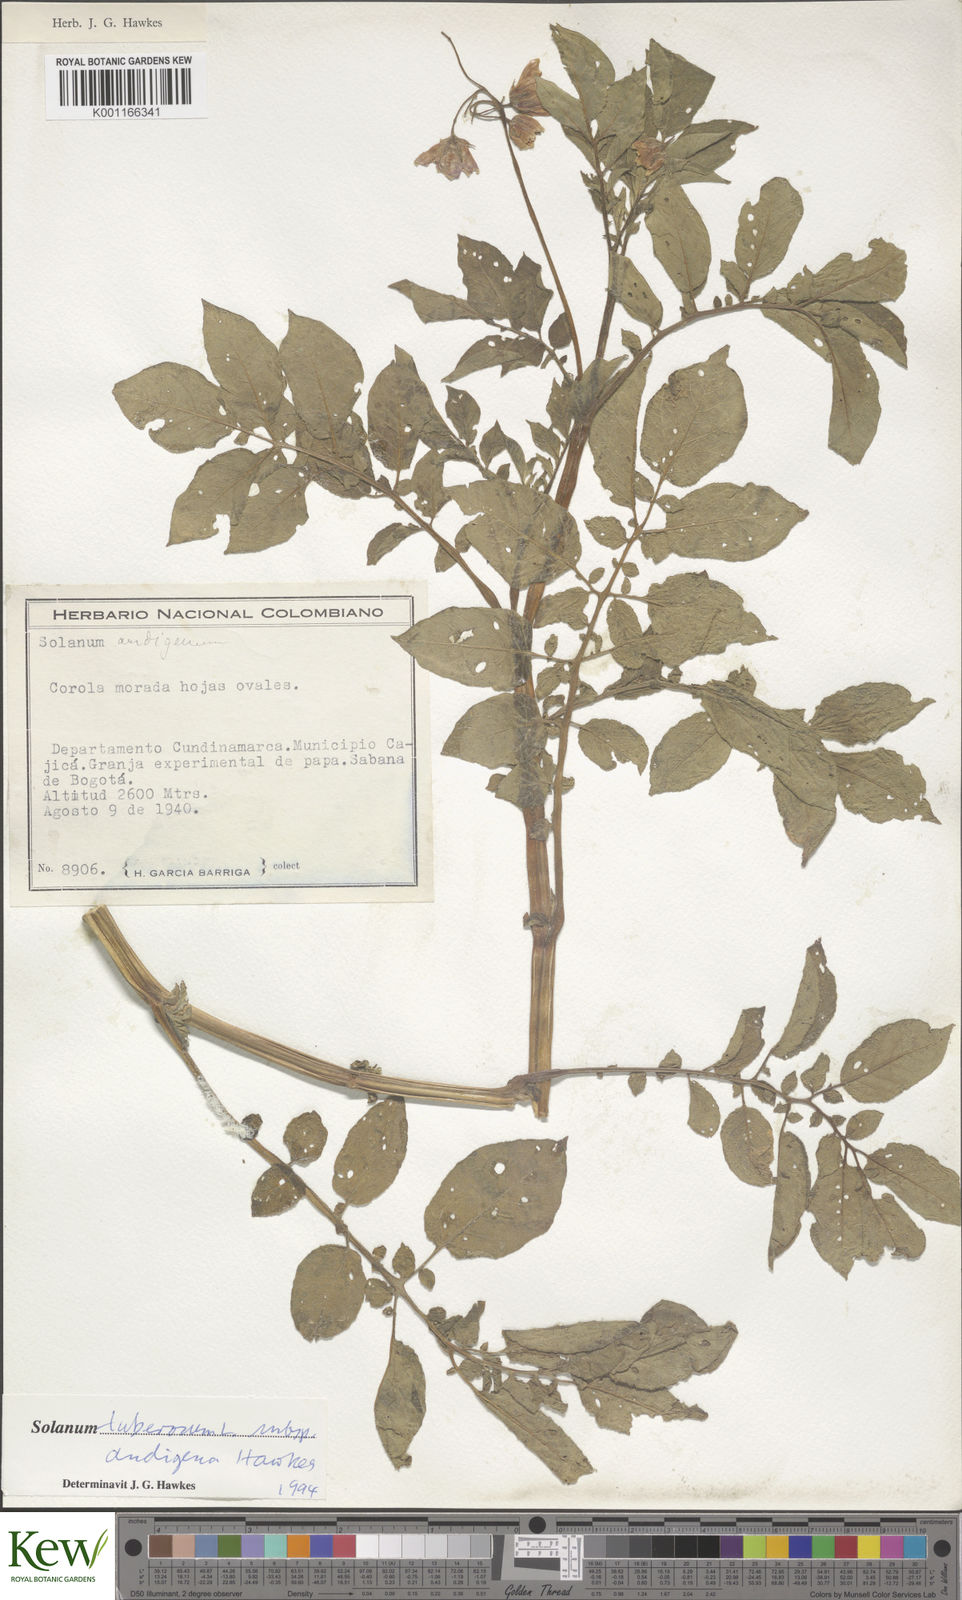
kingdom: Plantae
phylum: Tracheophyta
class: Magnoliopsida
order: Solanales
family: Solanaceae
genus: Solanum
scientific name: Solanum tuberosum
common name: Potato
